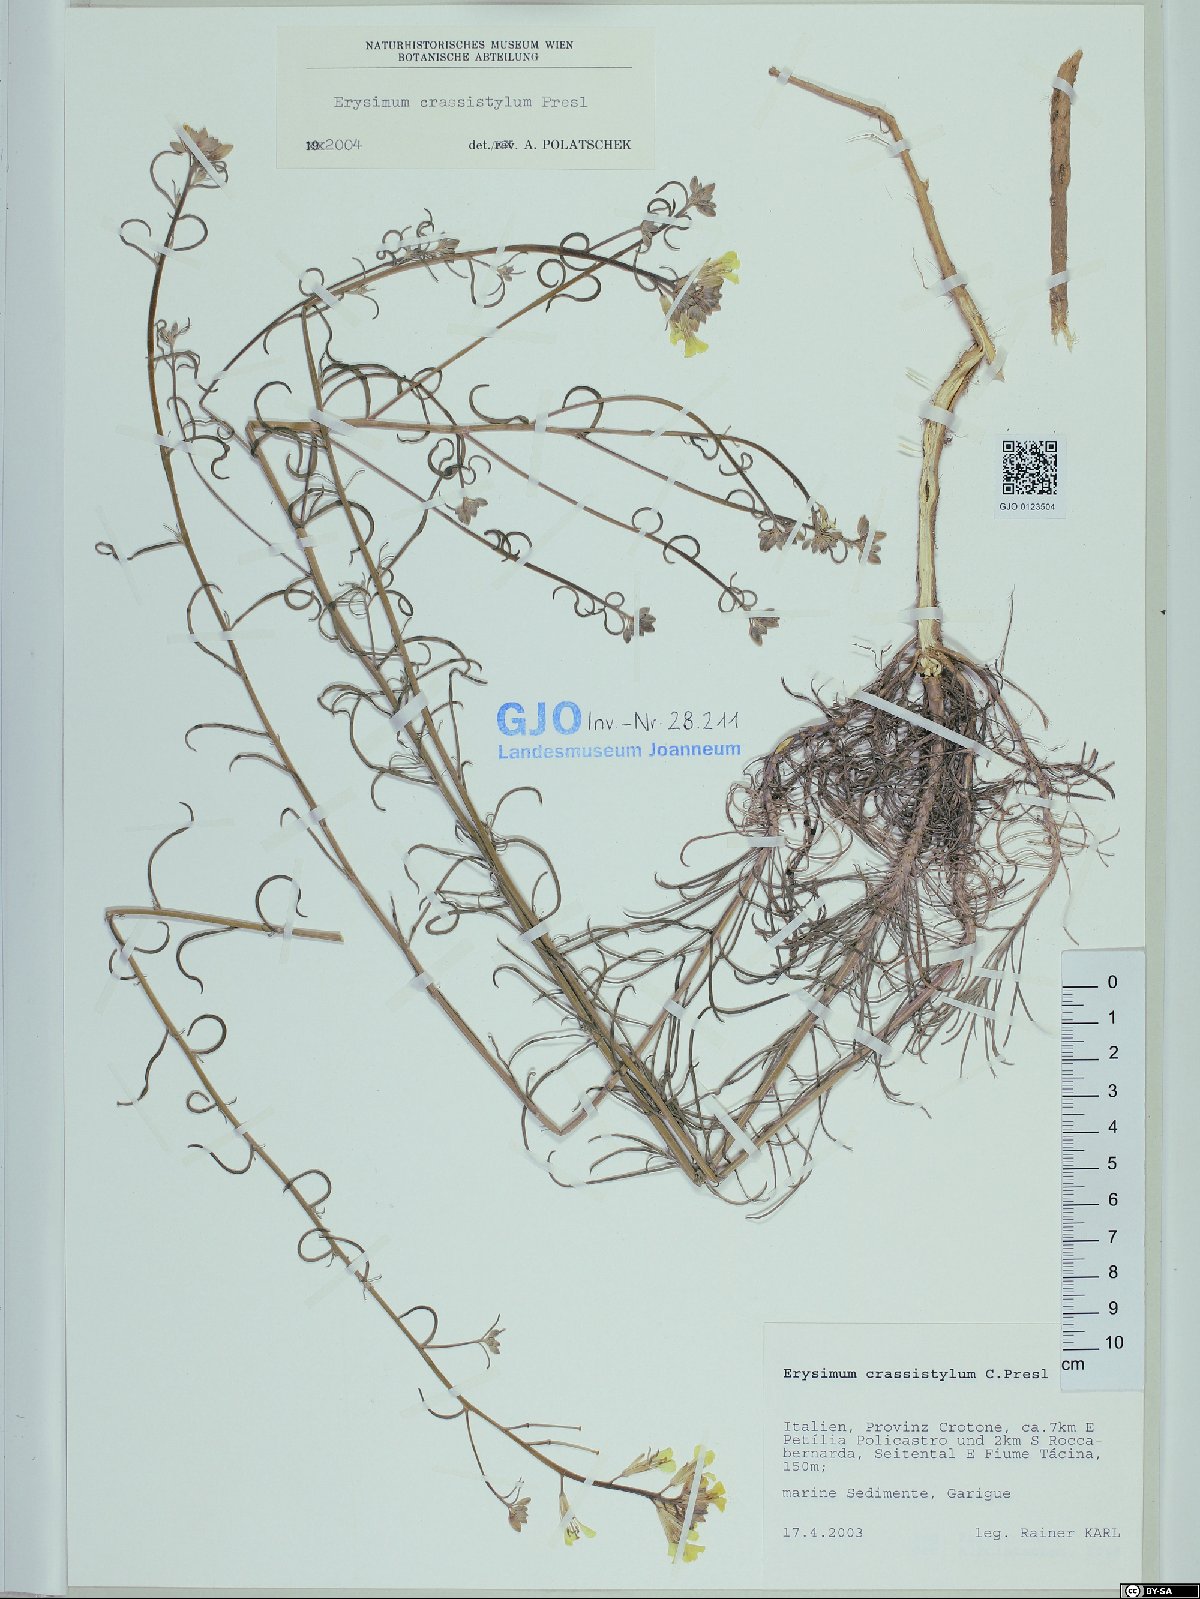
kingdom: Plantae
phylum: Tracheophyta
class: Magnoliopsida
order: Brassicales
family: Brassicaceae
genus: Erysimum
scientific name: Erysimum crassistylum
